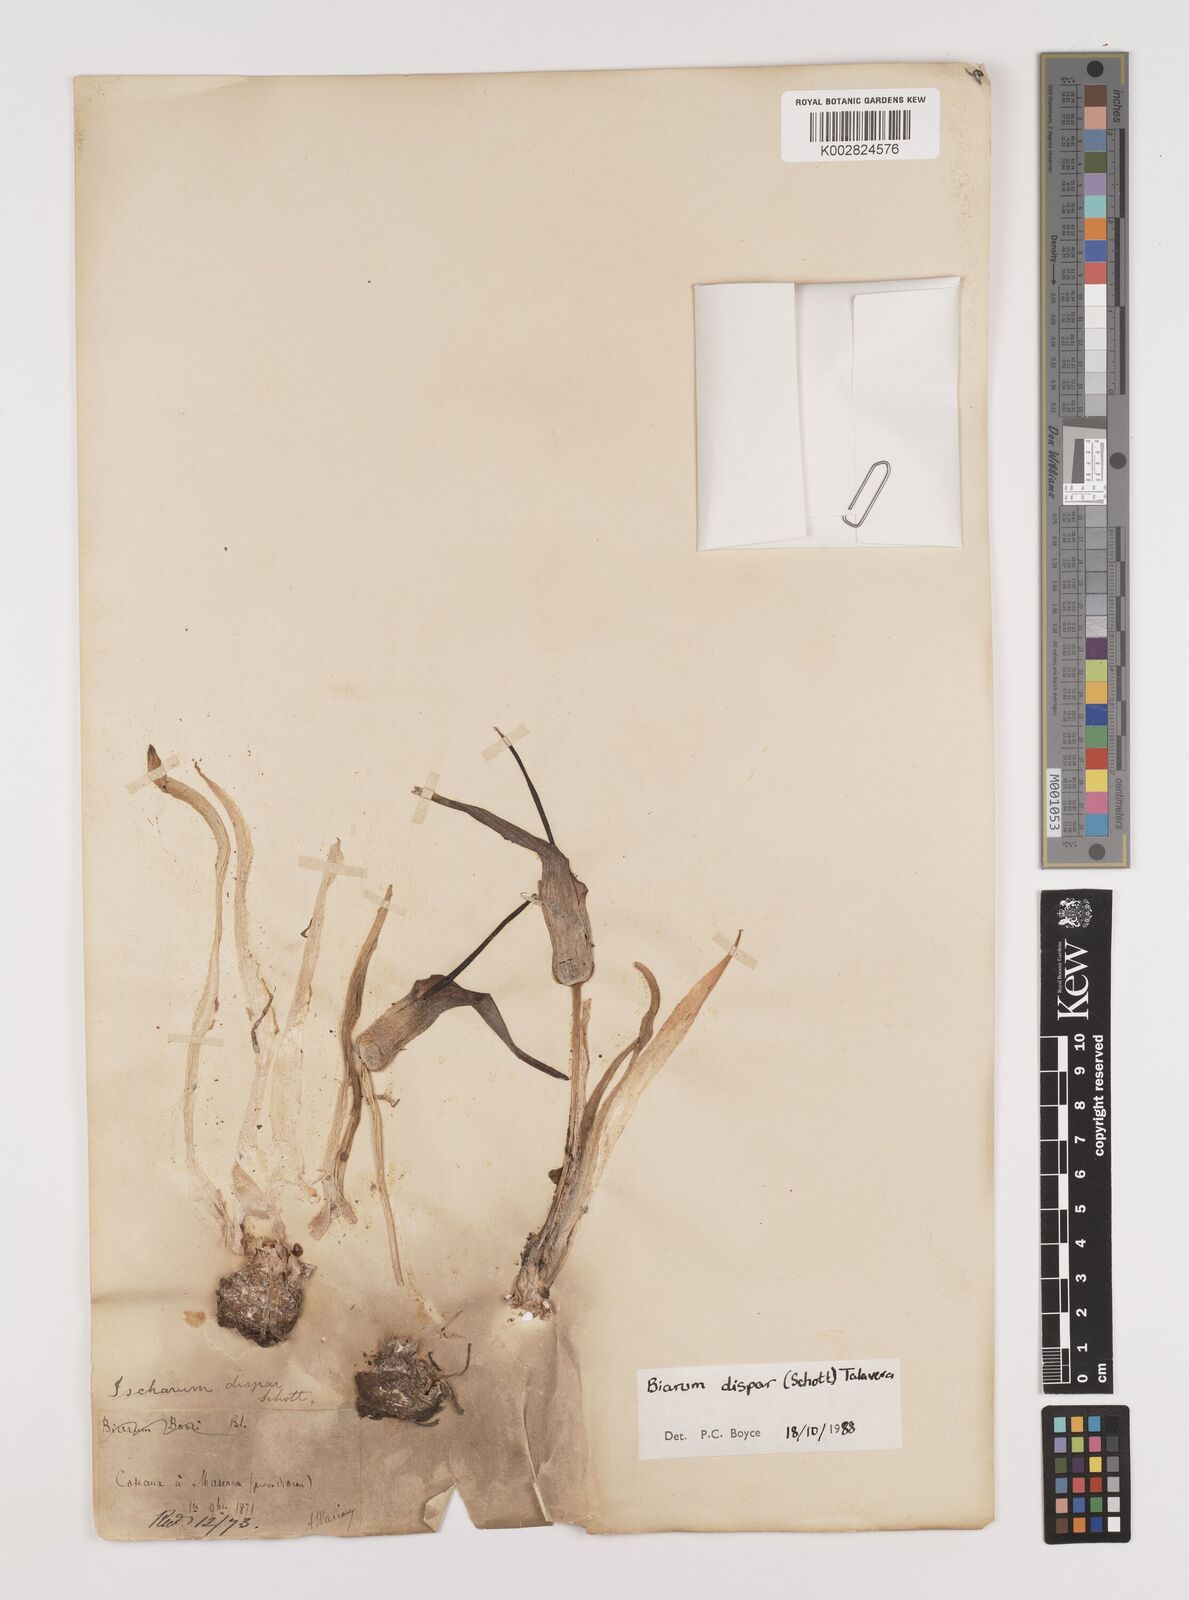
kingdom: Plantae
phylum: Tracheophyta
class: Liliopsida
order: Alismatales
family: Araceae
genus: Biarum
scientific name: Biarum dispar
